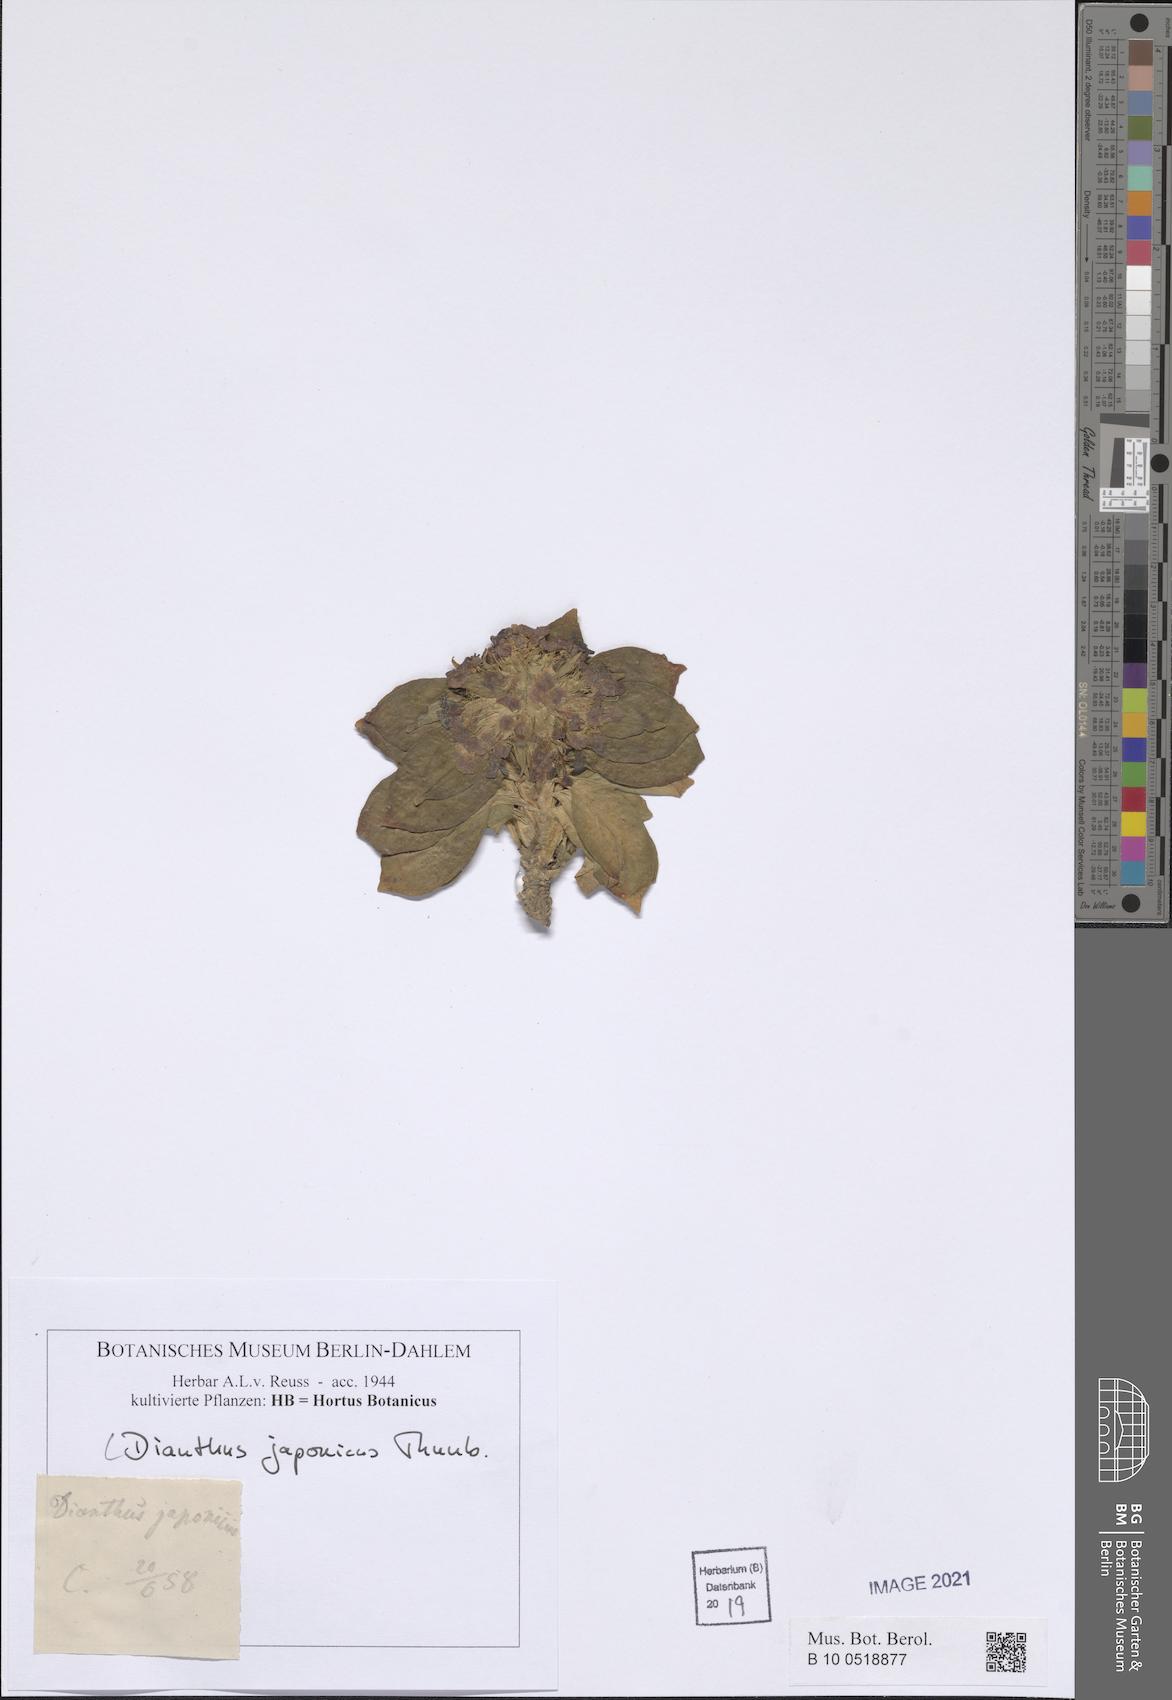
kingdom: Plantae
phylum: Tracheophyta
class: Magnoliopsida
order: Caryophyllales
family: Caryophyllaceae
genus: Dianthus
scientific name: Dianthus japonicus
